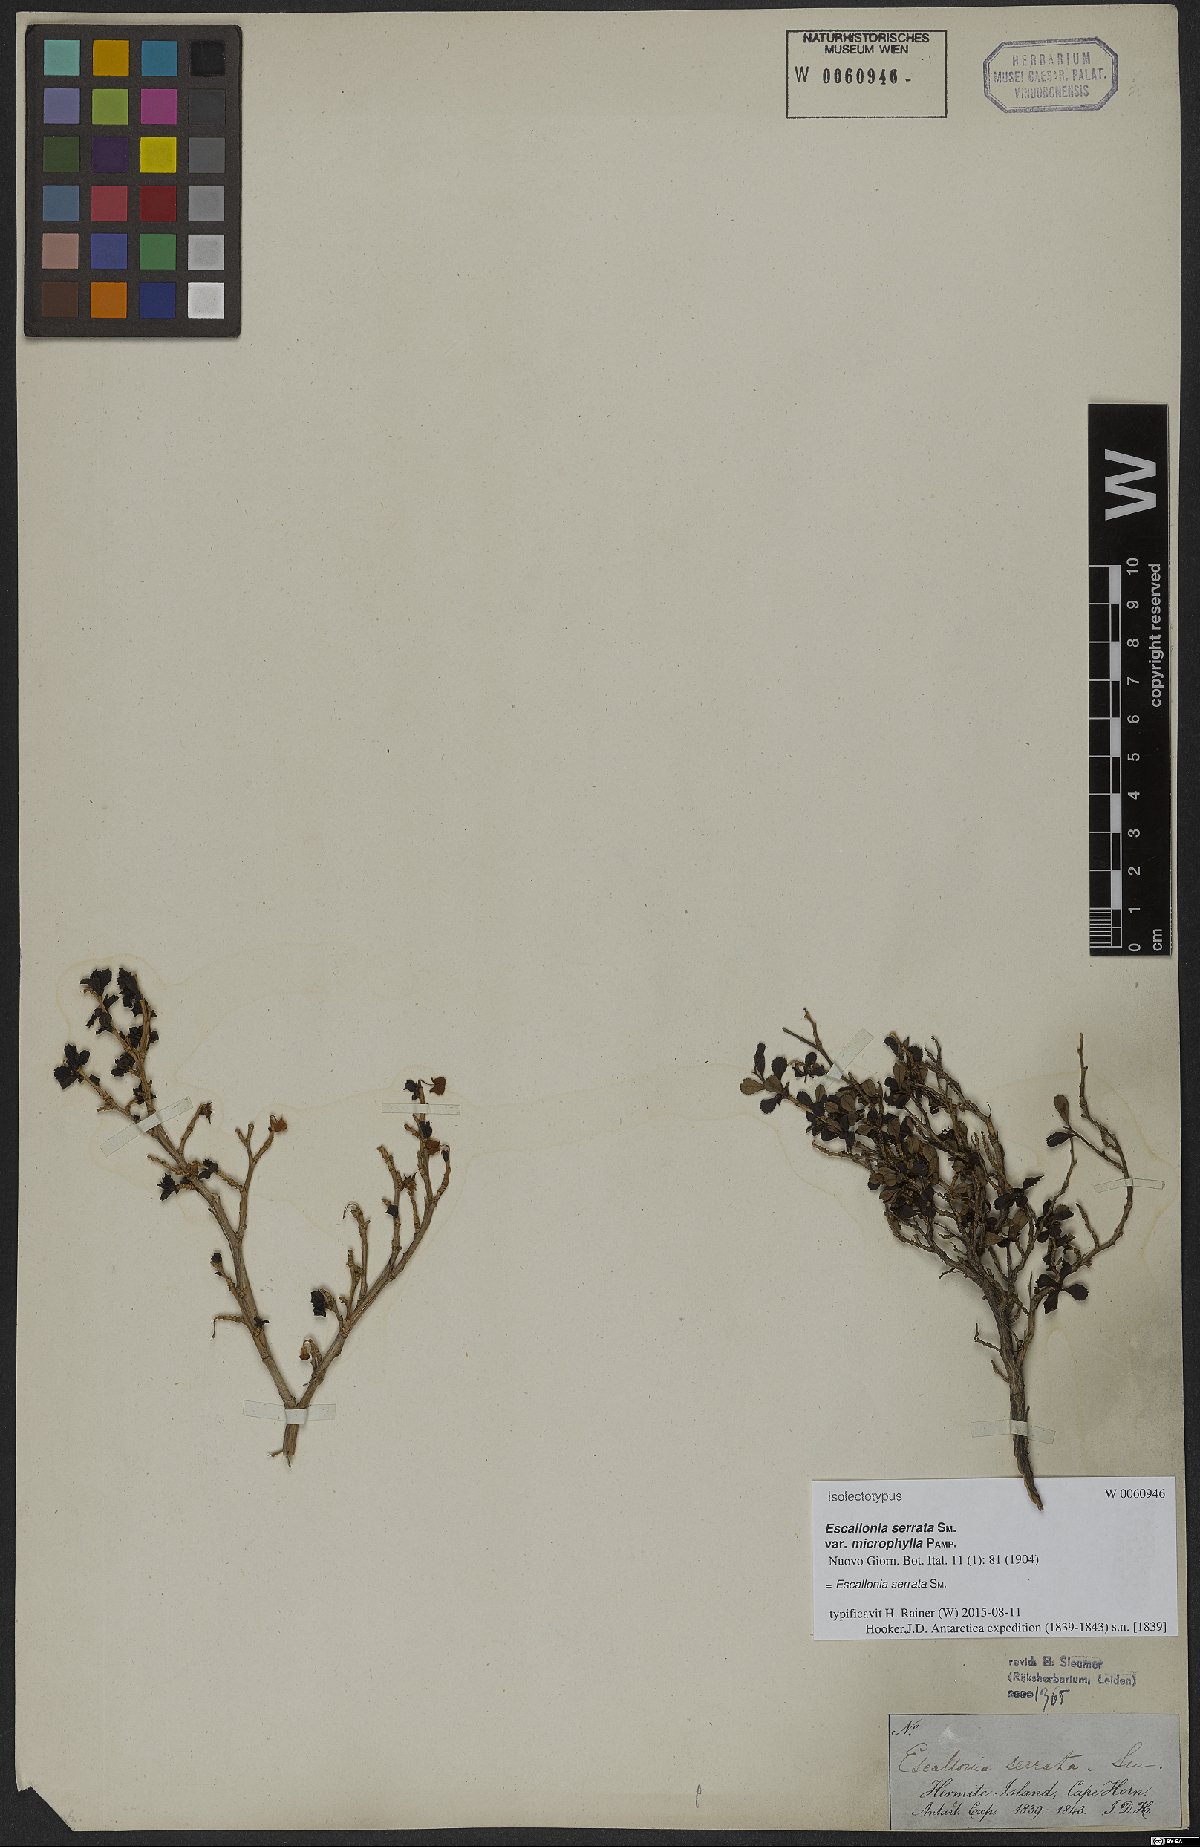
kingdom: Plantae
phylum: Tracheophyta
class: Magnoliopsida
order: Escalloniales
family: Escalloniaceae
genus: Escallonia
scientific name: Escallonia serrata
